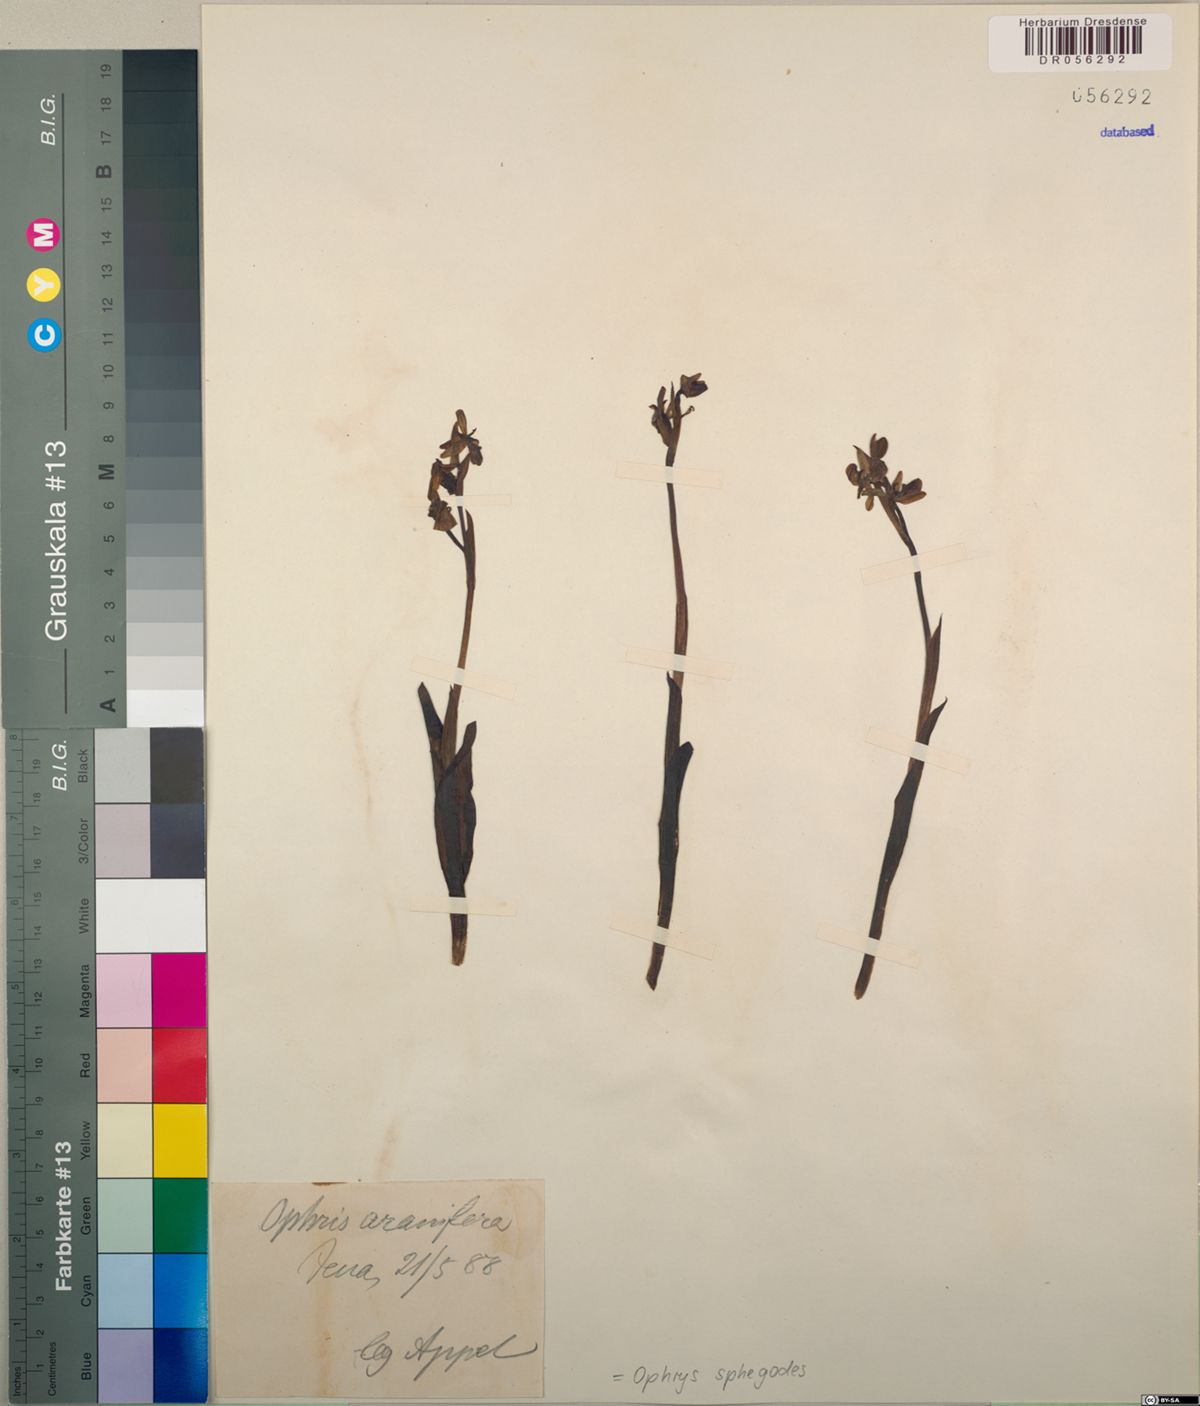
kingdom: Plantae
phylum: Tracheophyta
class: Liliopsida
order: Asparagales
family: Orchidaceae
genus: Ophrys
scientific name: Ophrys sphegodes
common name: Early spider-orchid
